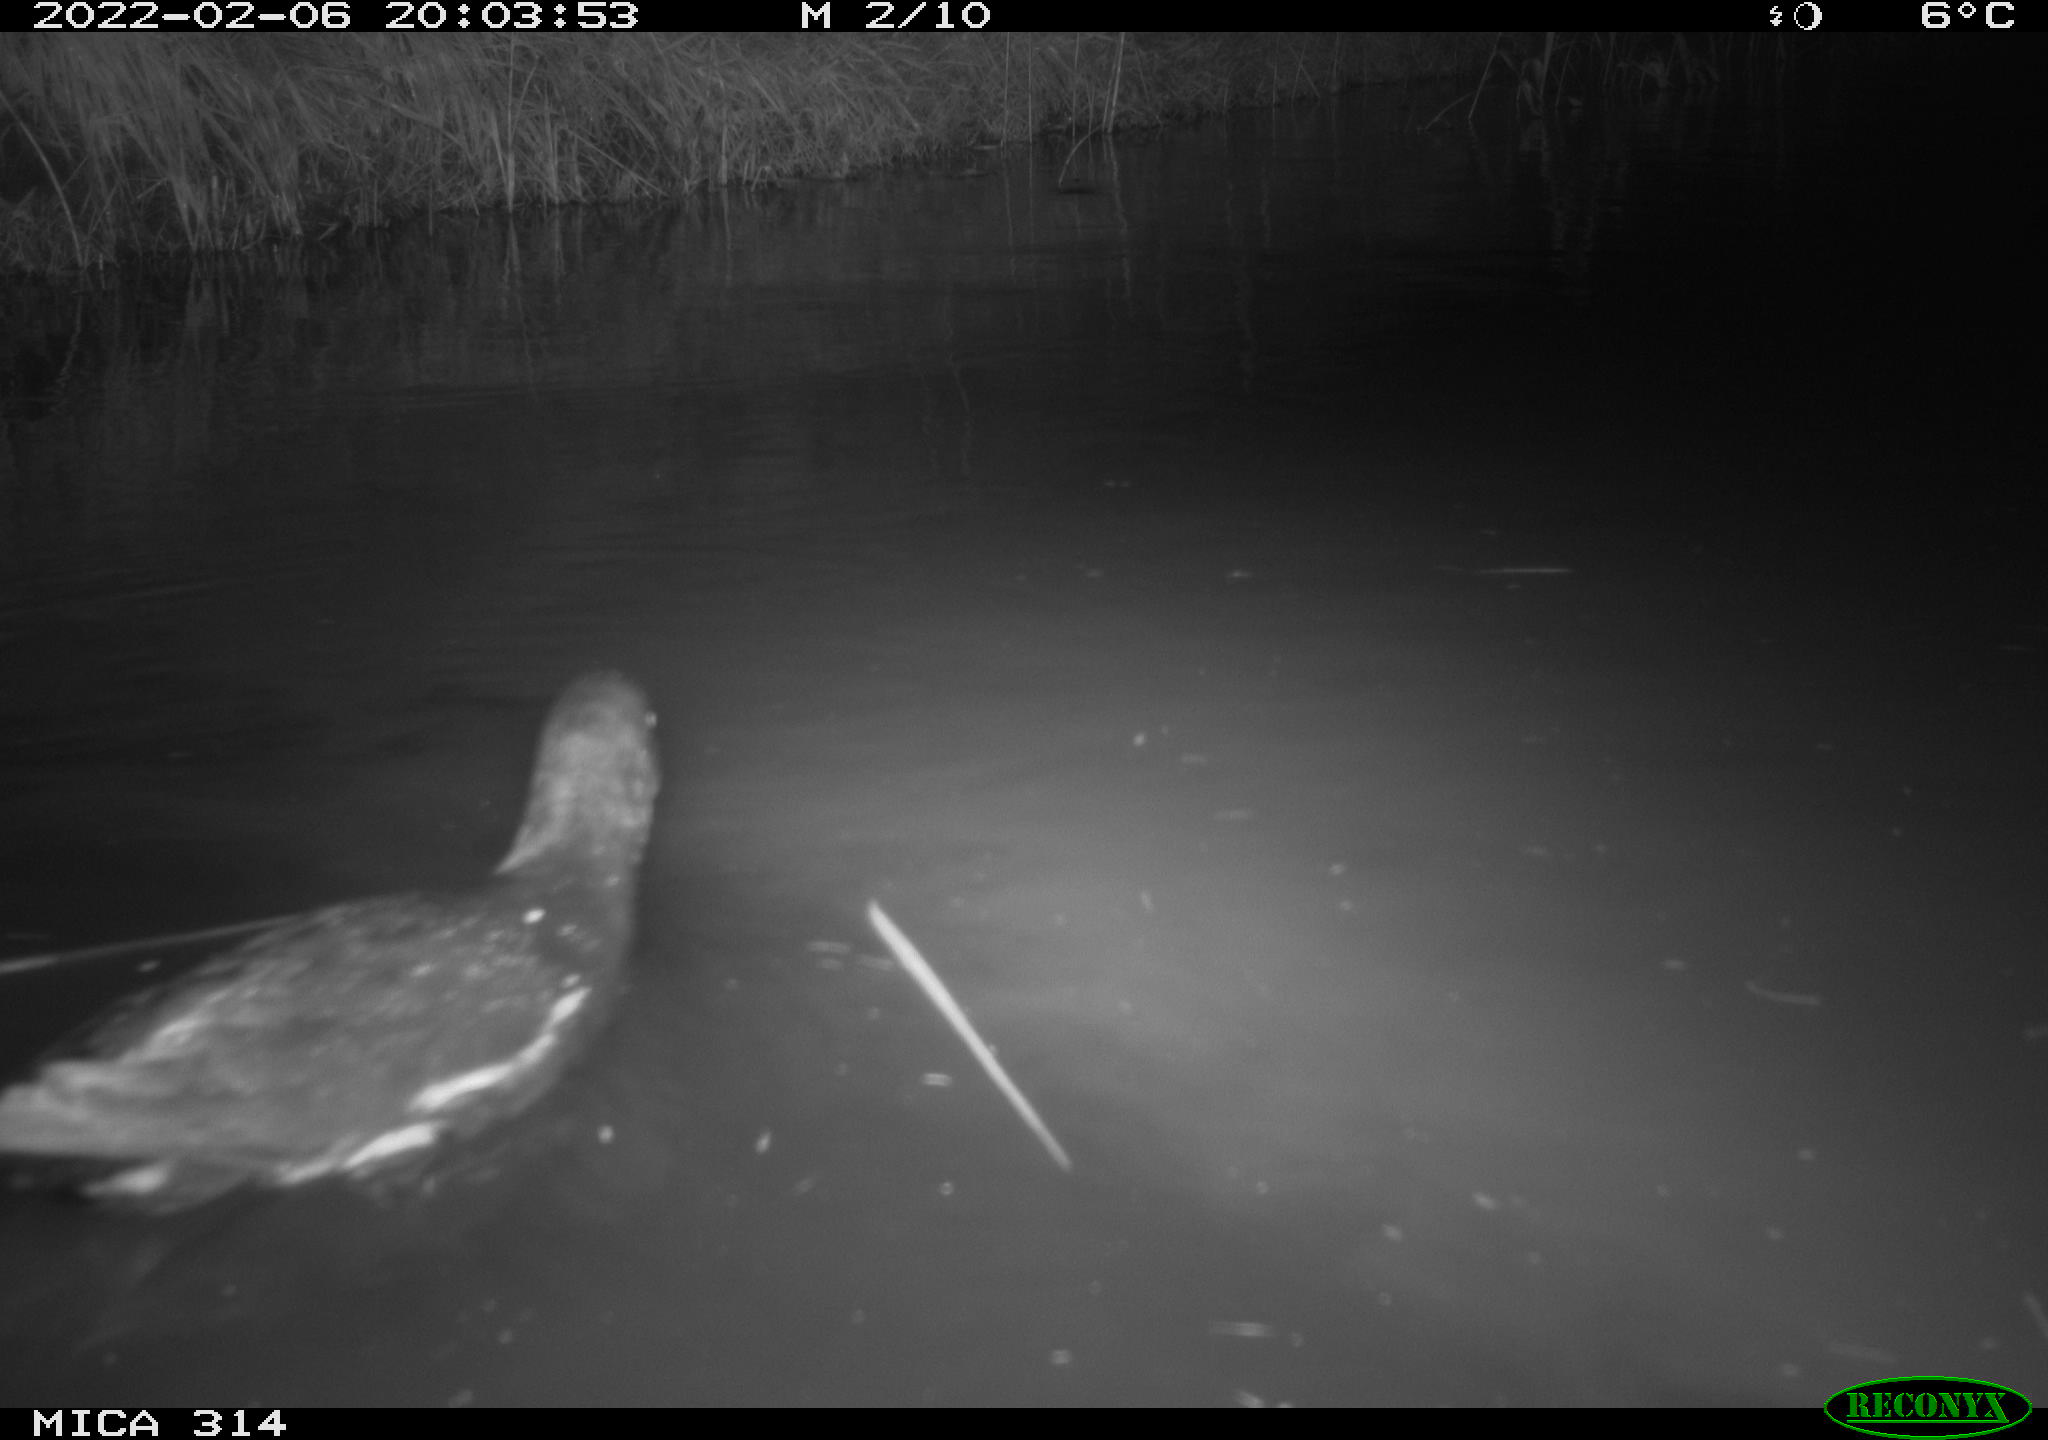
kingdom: Animalia
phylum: Chordata
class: Aves
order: Gruiformes
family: Rallidae
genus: Gallinula
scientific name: Gallinula chloropus
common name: Common moorhen
